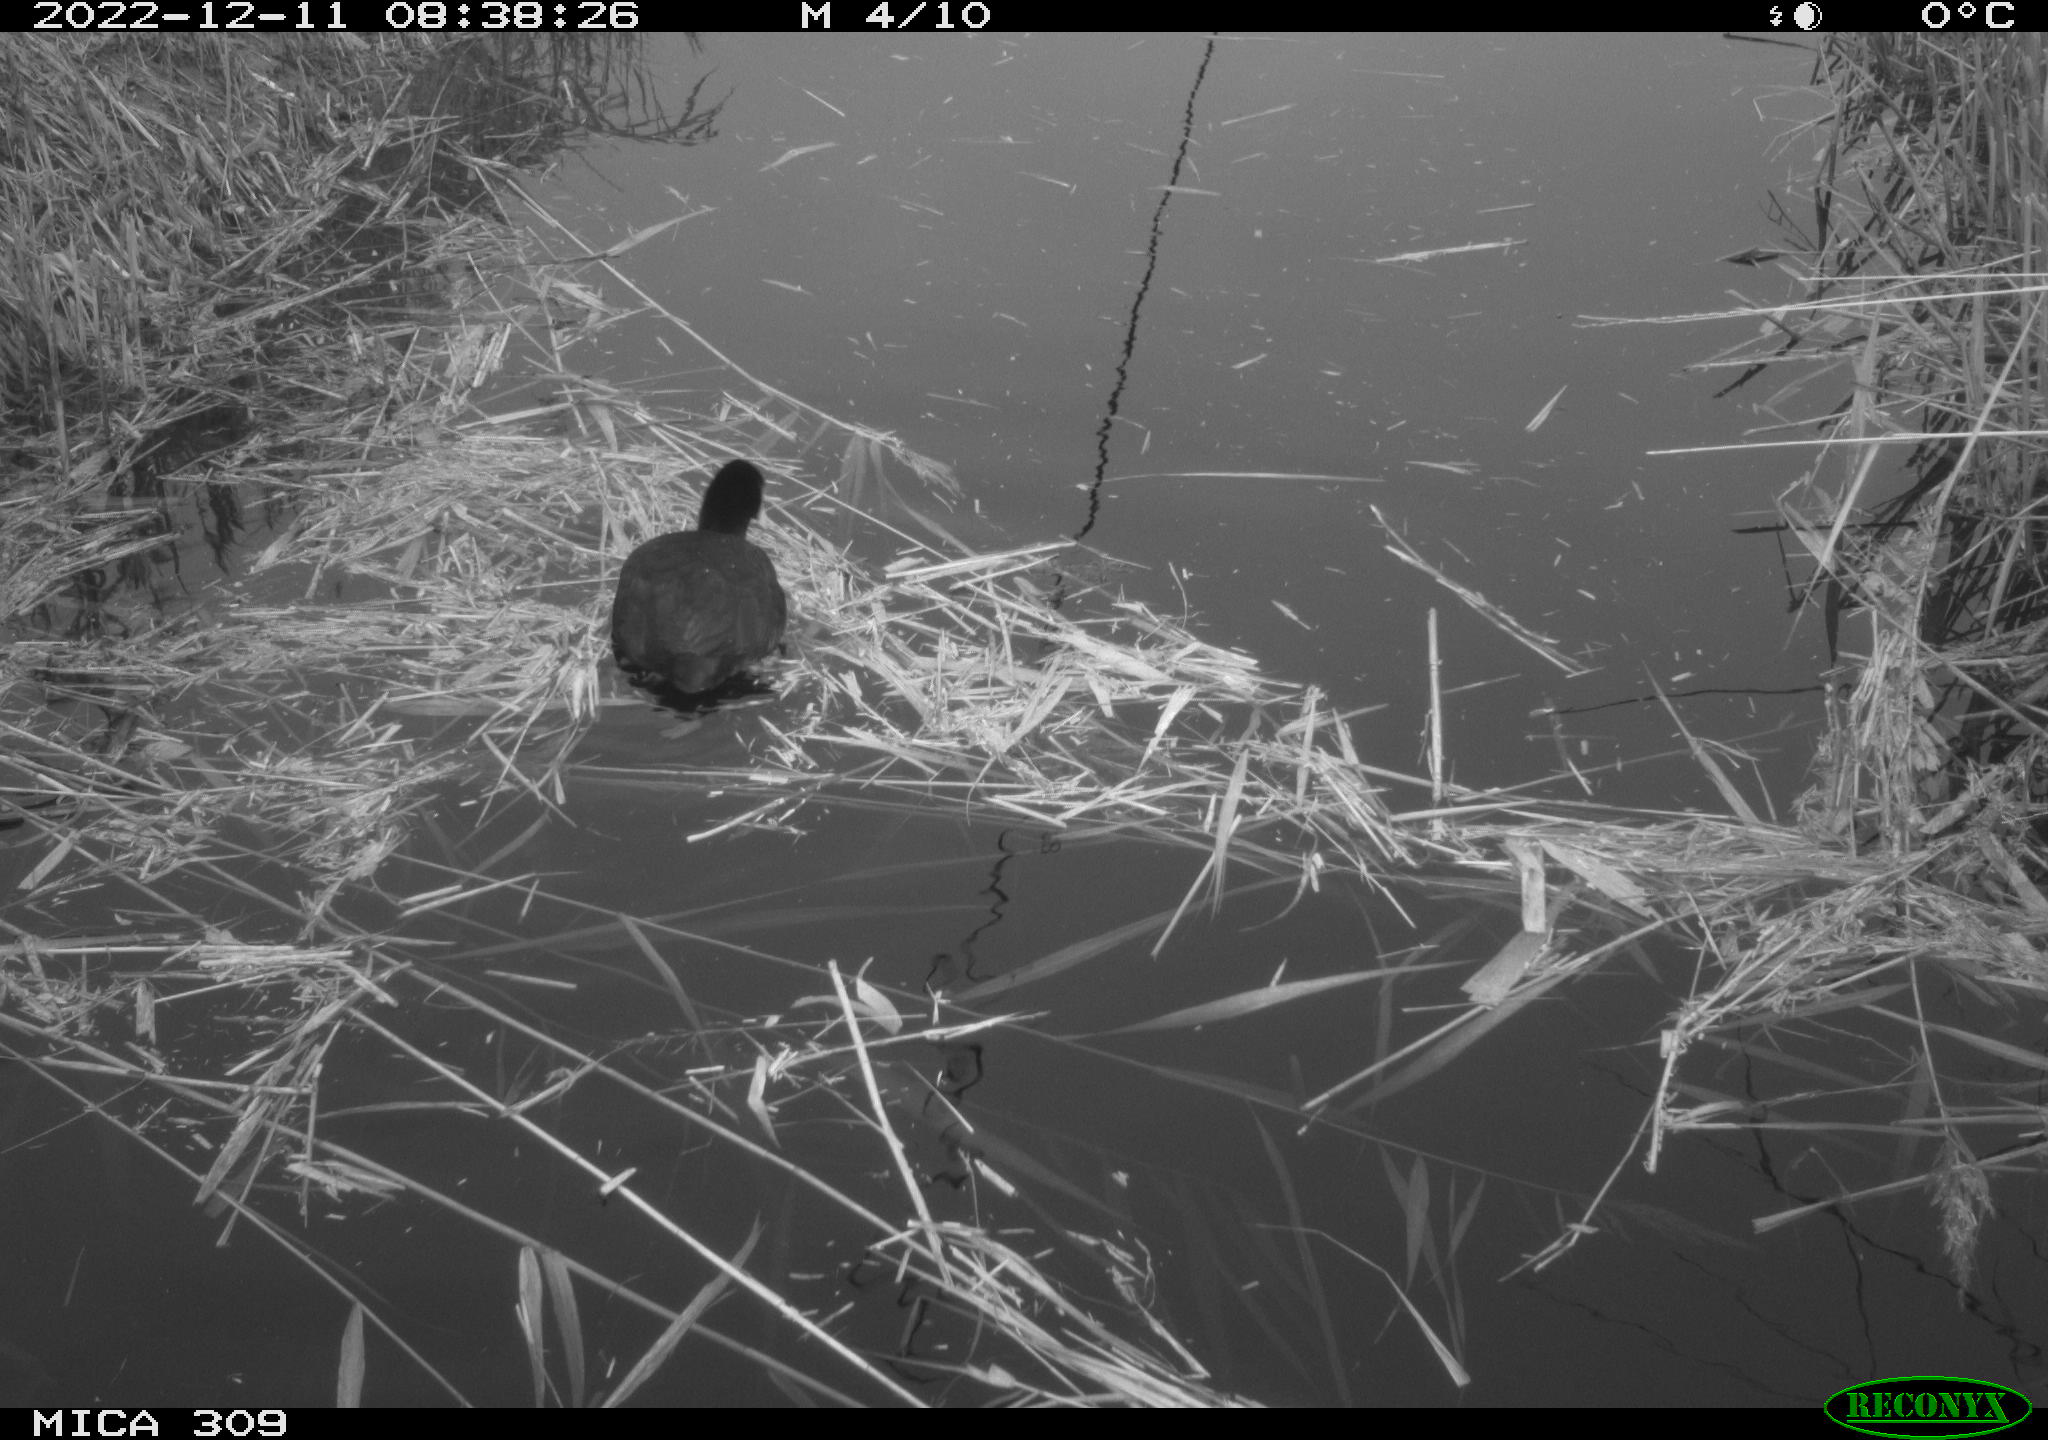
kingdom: Animalia
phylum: Chordata
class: Aves
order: Gruiformes
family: Rallidae
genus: Fulica
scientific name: Fulica atra
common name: Eurasian coot
